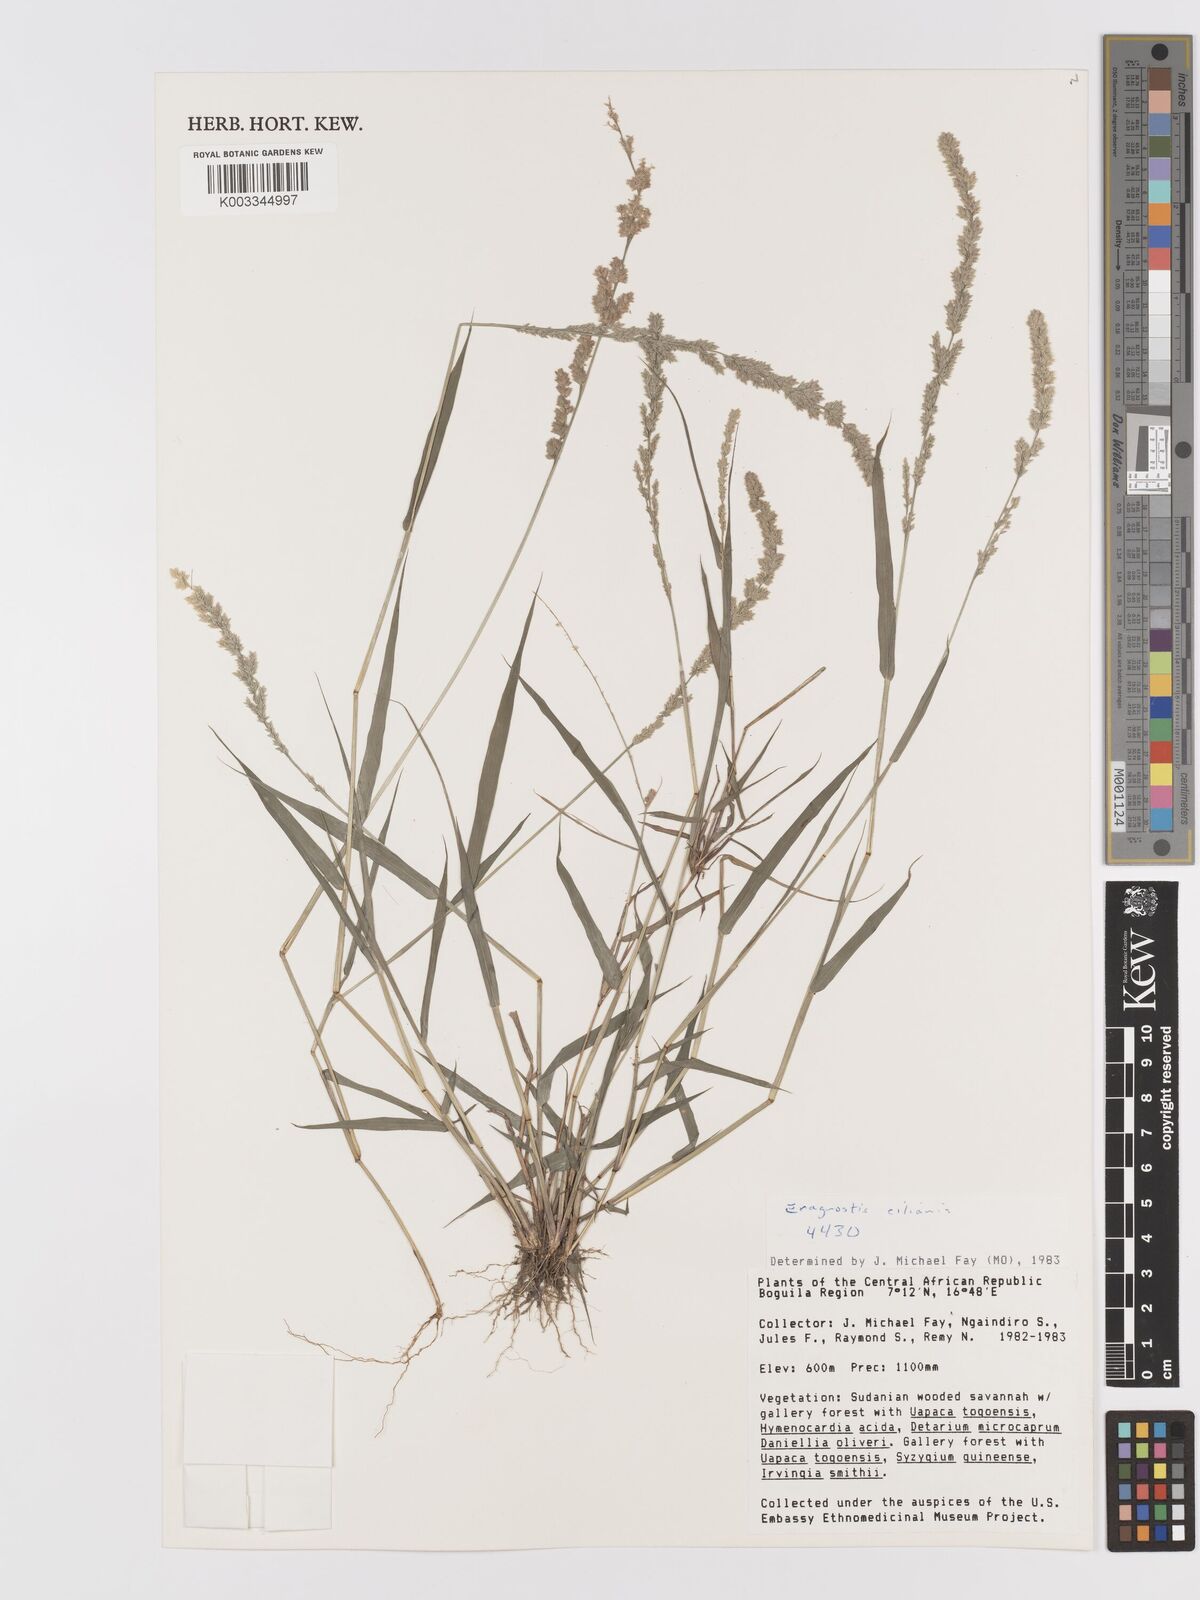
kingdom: Plantae
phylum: Tracheophyta
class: Liliopsida
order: Poales
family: Poaceae
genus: Eragrostis
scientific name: Eragrostis ciliaris
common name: Gophertail lovegrass
